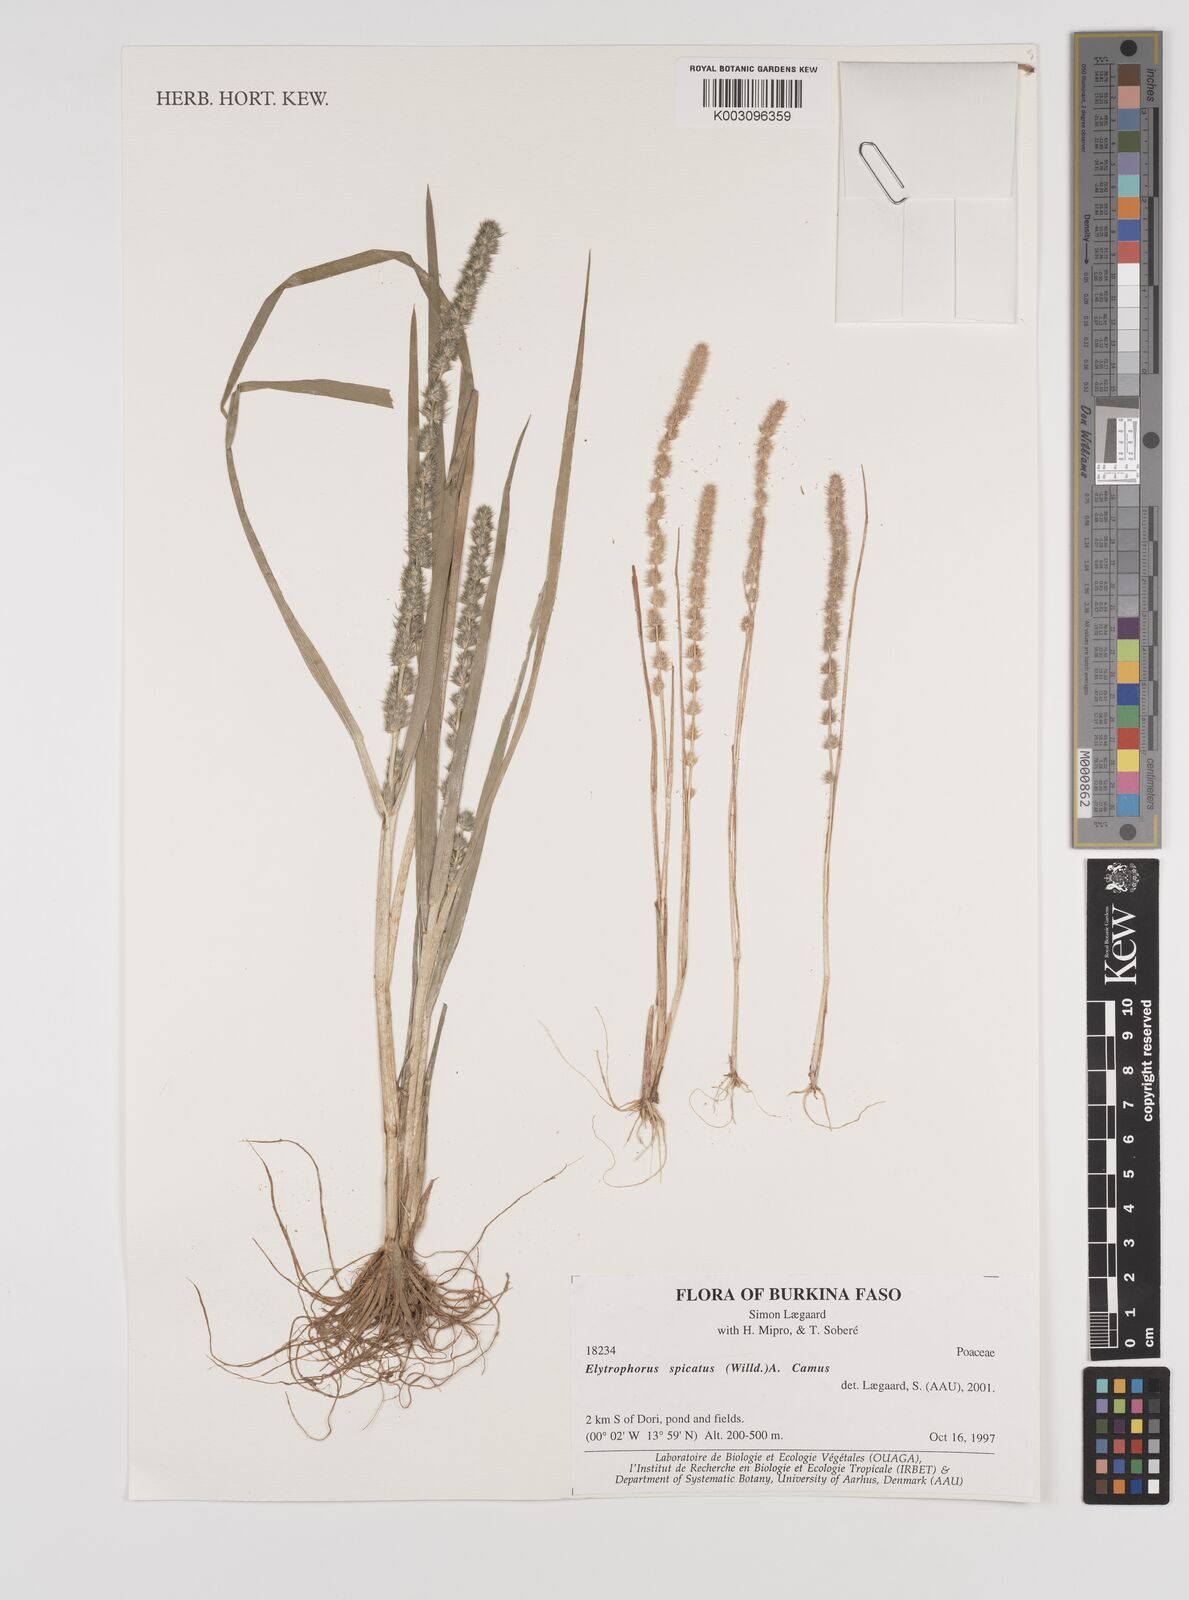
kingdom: Plantae
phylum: Tracheophyta
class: Liliopsida
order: Poales
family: Poaceae
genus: Elytrophorus
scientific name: Elytrophorus spicatus
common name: Spike grass
